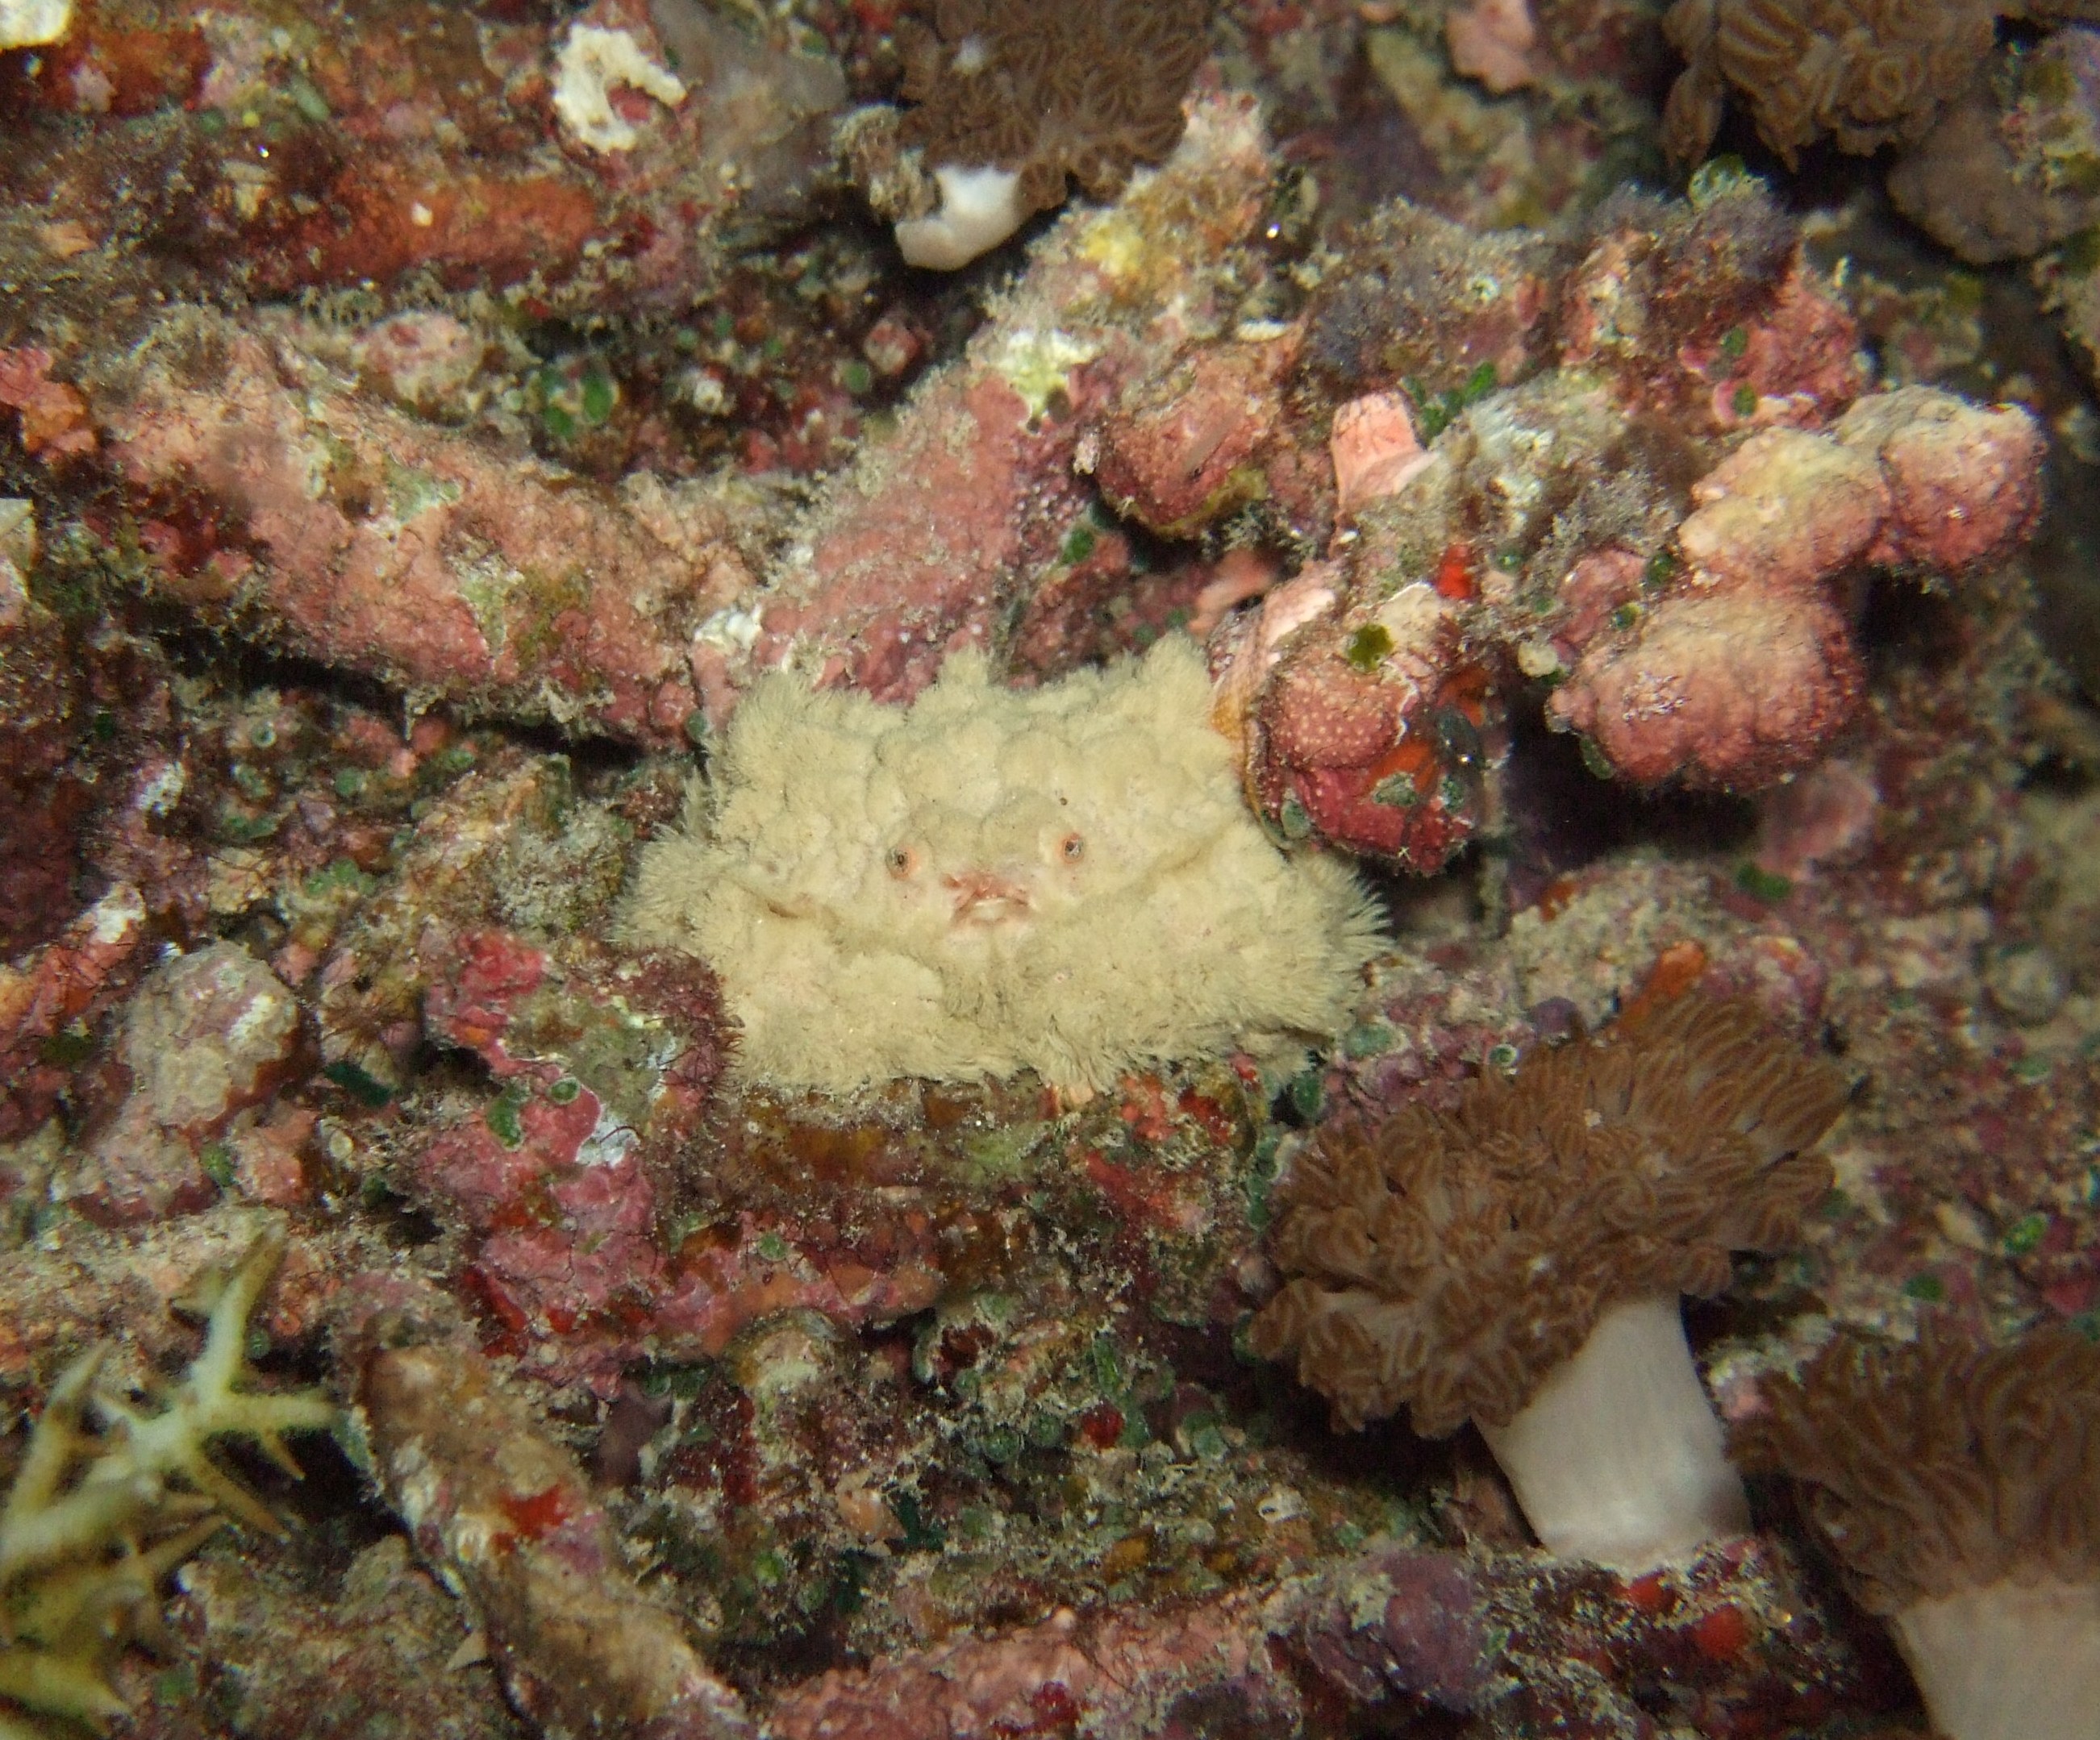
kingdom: Animalia
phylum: Arthropoda
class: Malacostraca
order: Decapoda
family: Xanthidae
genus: Polydectus
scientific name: Polydectus
